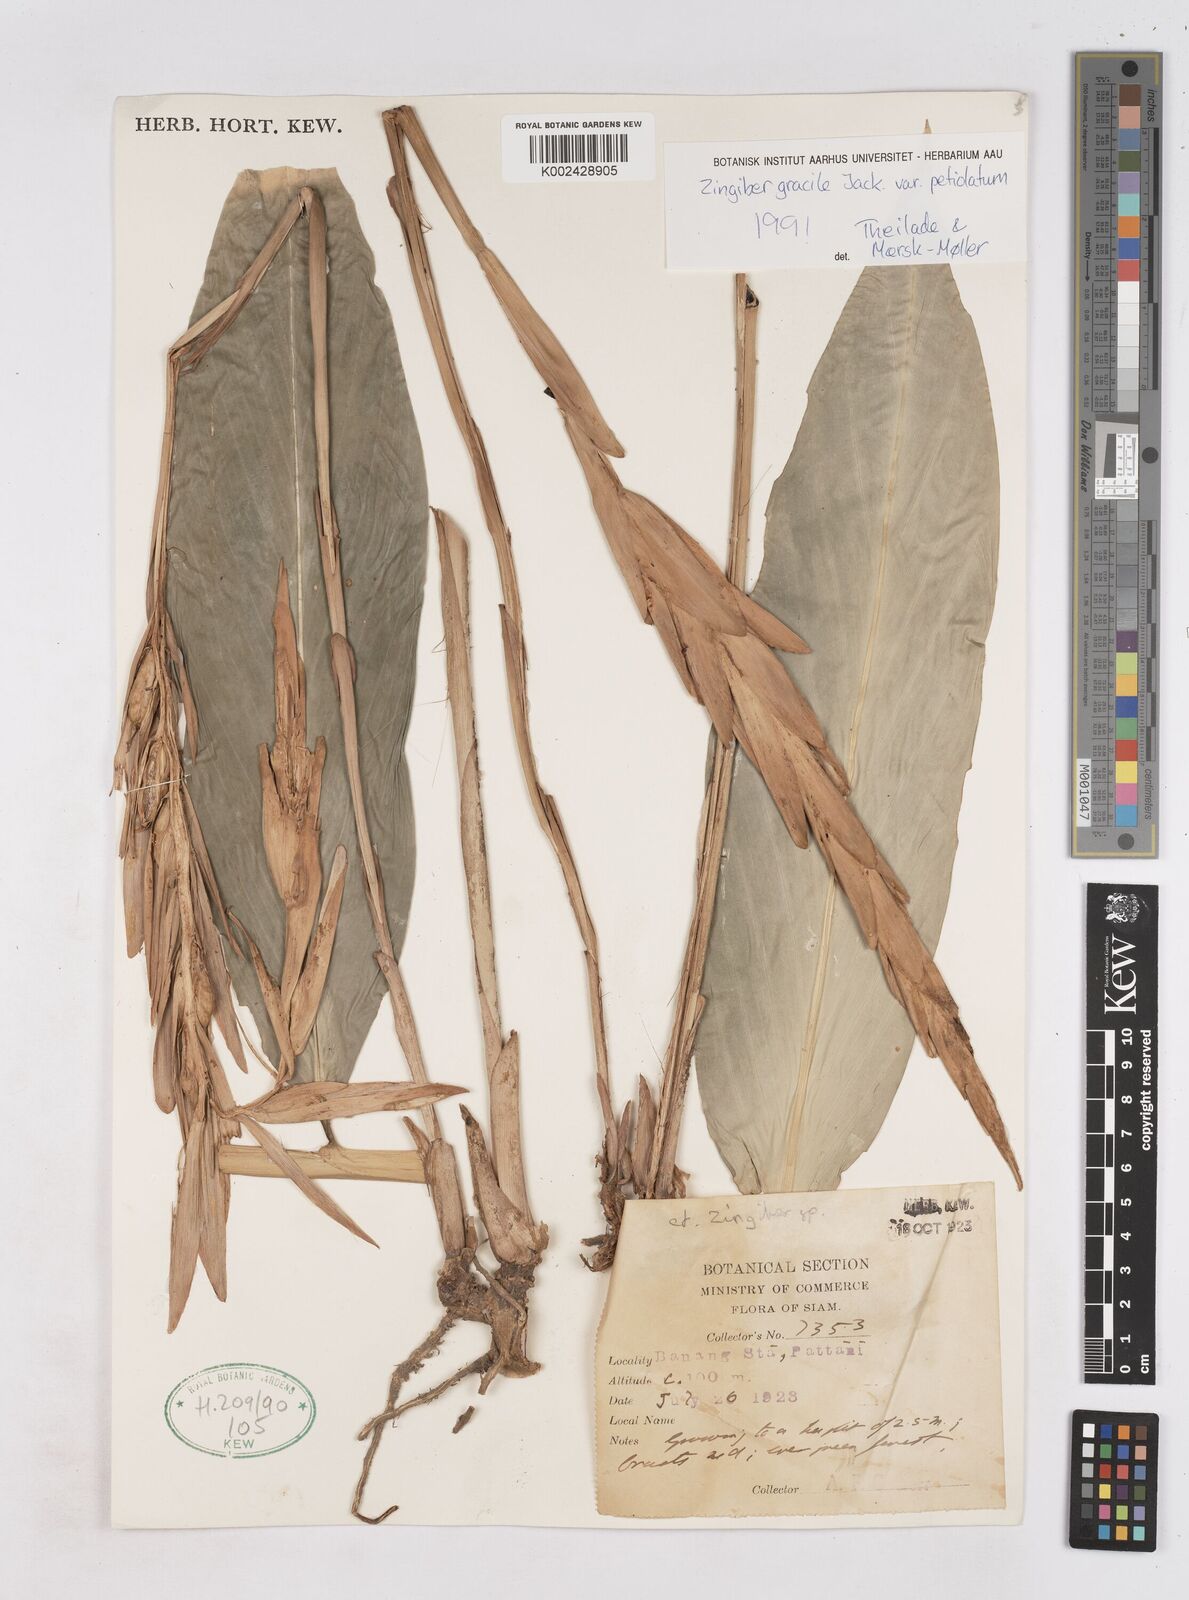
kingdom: Plantae
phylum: Tracheophyta
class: Liliopsida
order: Zingiberales
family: Zingiberaceae
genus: Zingiber
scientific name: Zingiber gracile
